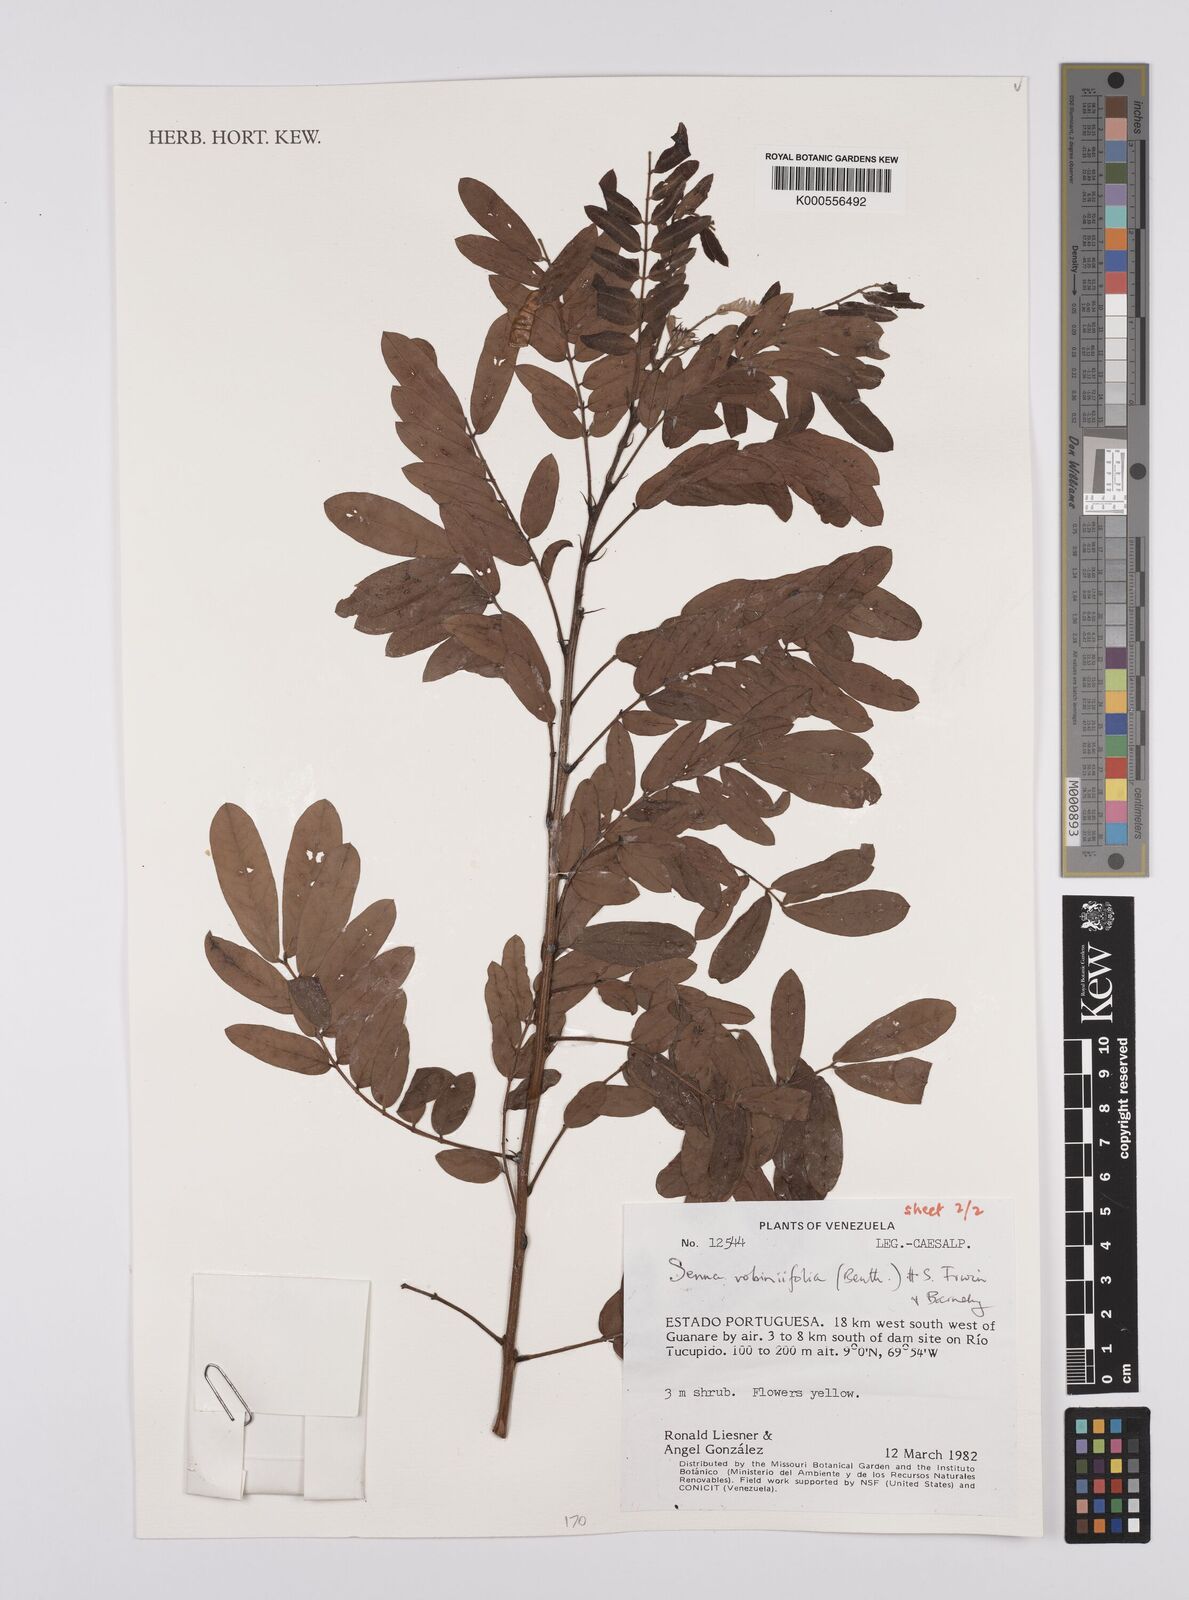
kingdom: Plantae
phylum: Tracheophyta
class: Magnoliopsida
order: Fabales
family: Fabaceae
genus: Senna
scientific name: Senna robiniifolia
